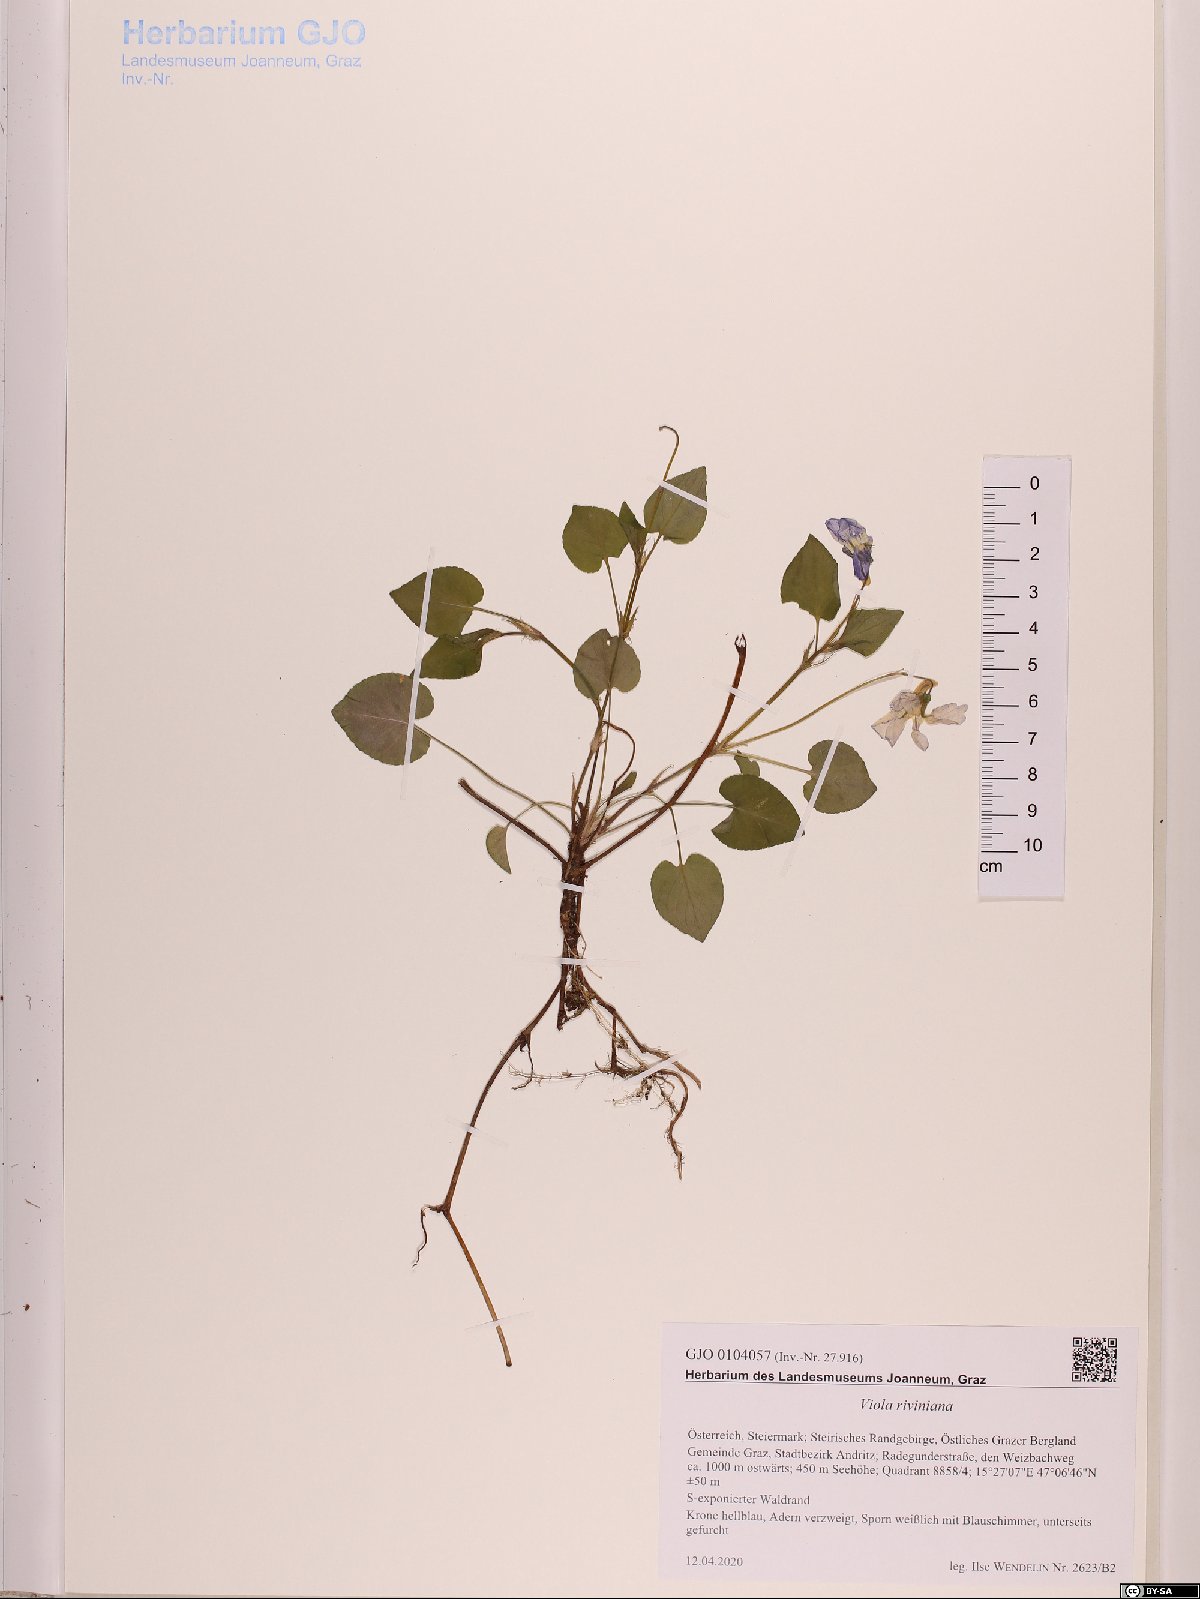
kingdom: Plantae
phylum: Tracheophyta
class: Magnoliopsida
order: Malpighiales
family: Violaceae
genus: Viola
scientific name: Viola riviniana
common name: Common dog-violet
